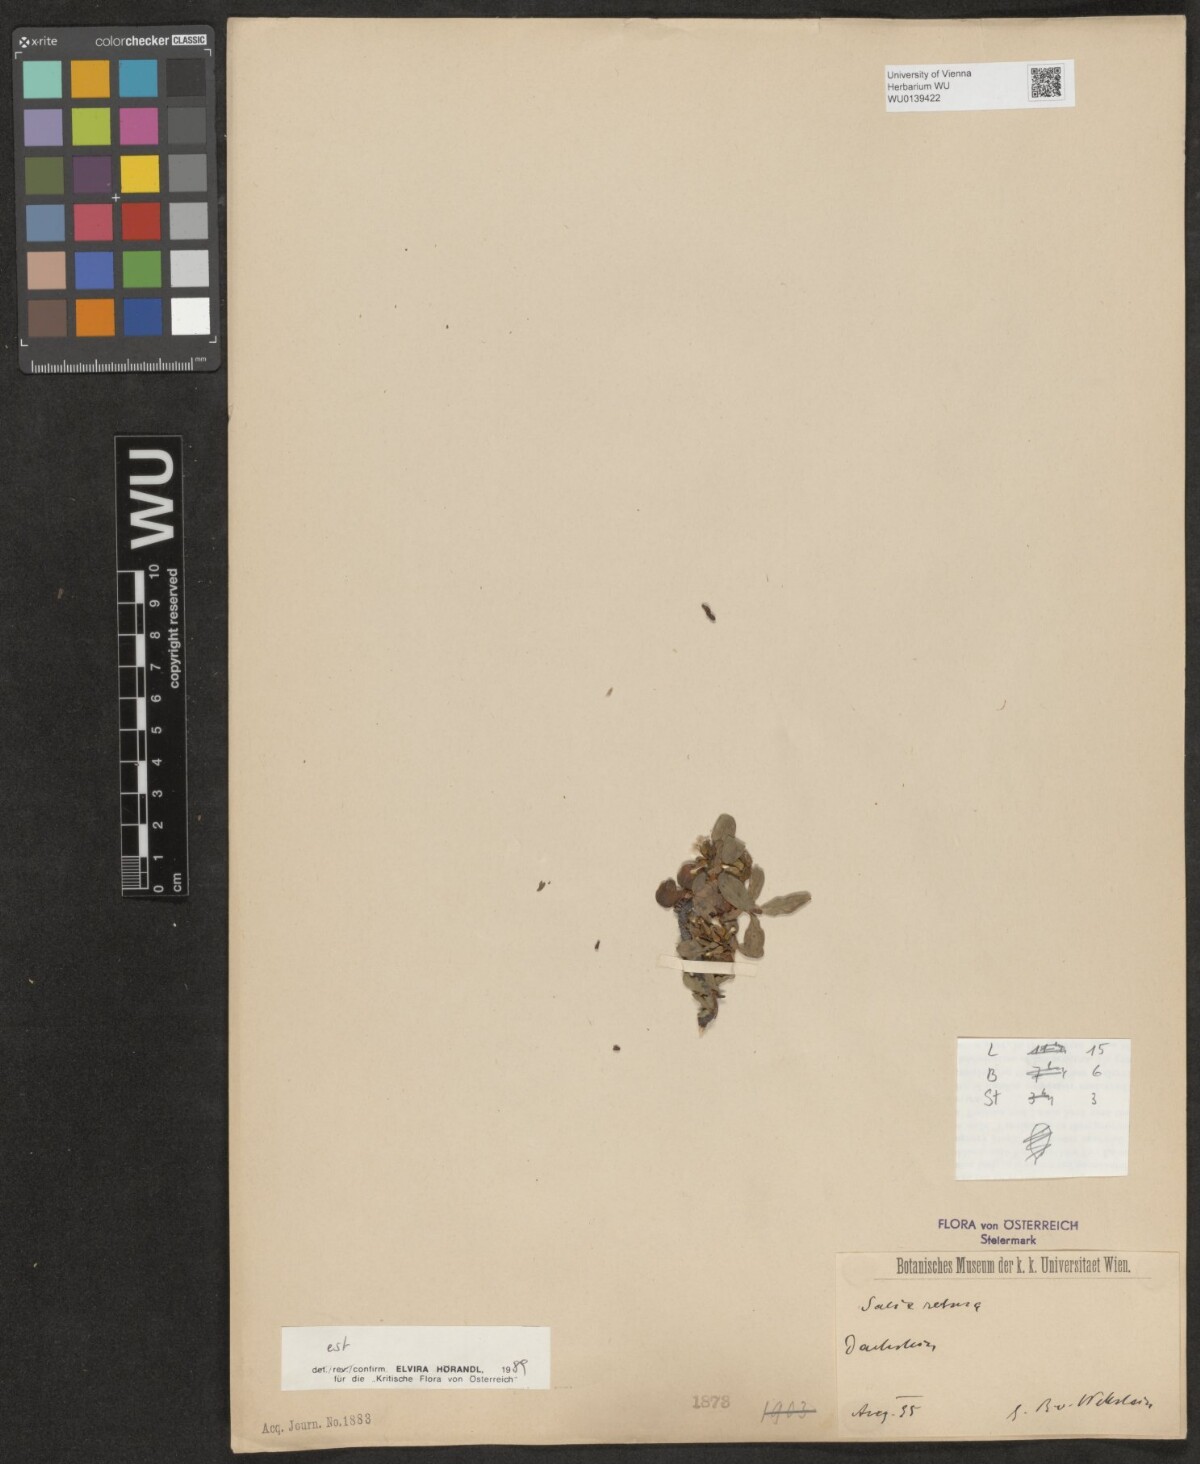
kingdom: Plantae
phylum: Tracheophyta
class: Magnoliopsida
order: Malpighiales
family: Salicaceae
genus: Salix
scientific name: Salix retusa
